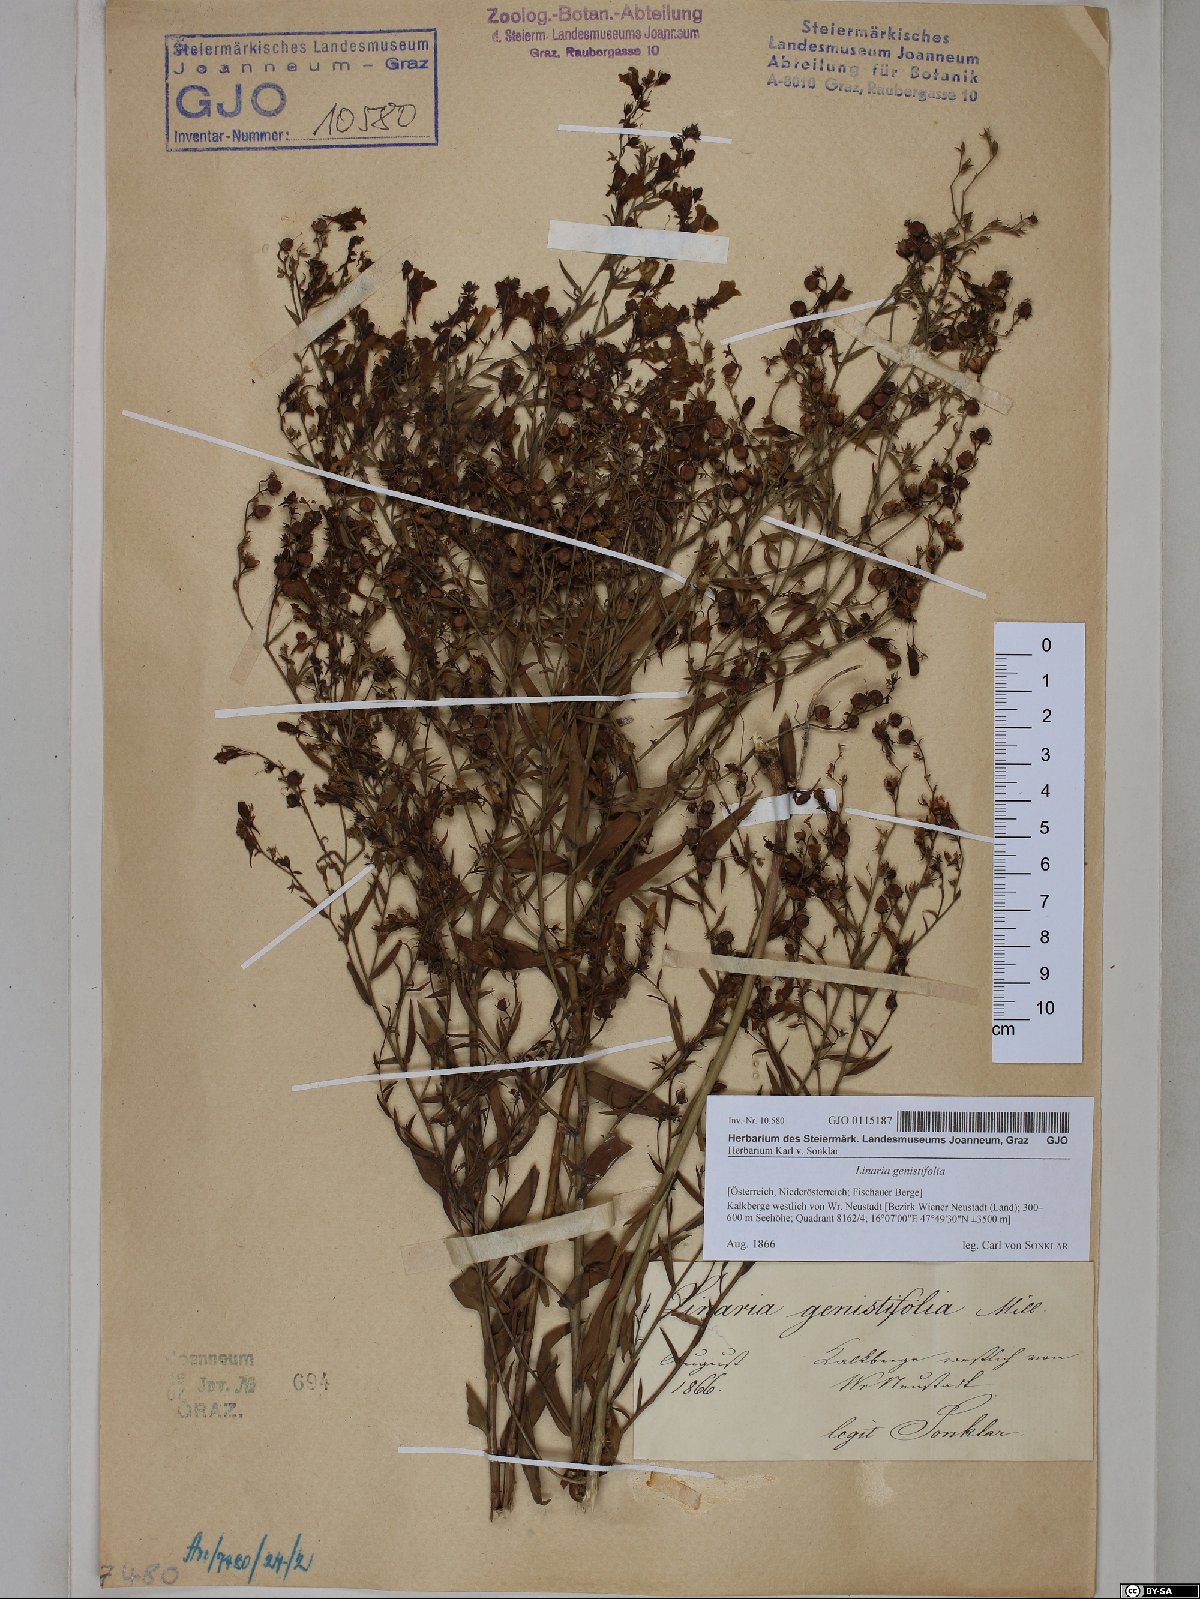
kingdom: Plantae
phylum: Tracheophyta
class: Magnoliopsida
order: Lamiales
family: Plantaginaceae
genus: Linaria
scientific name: Linaria genistifolia
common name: Broomleaf toadflax
